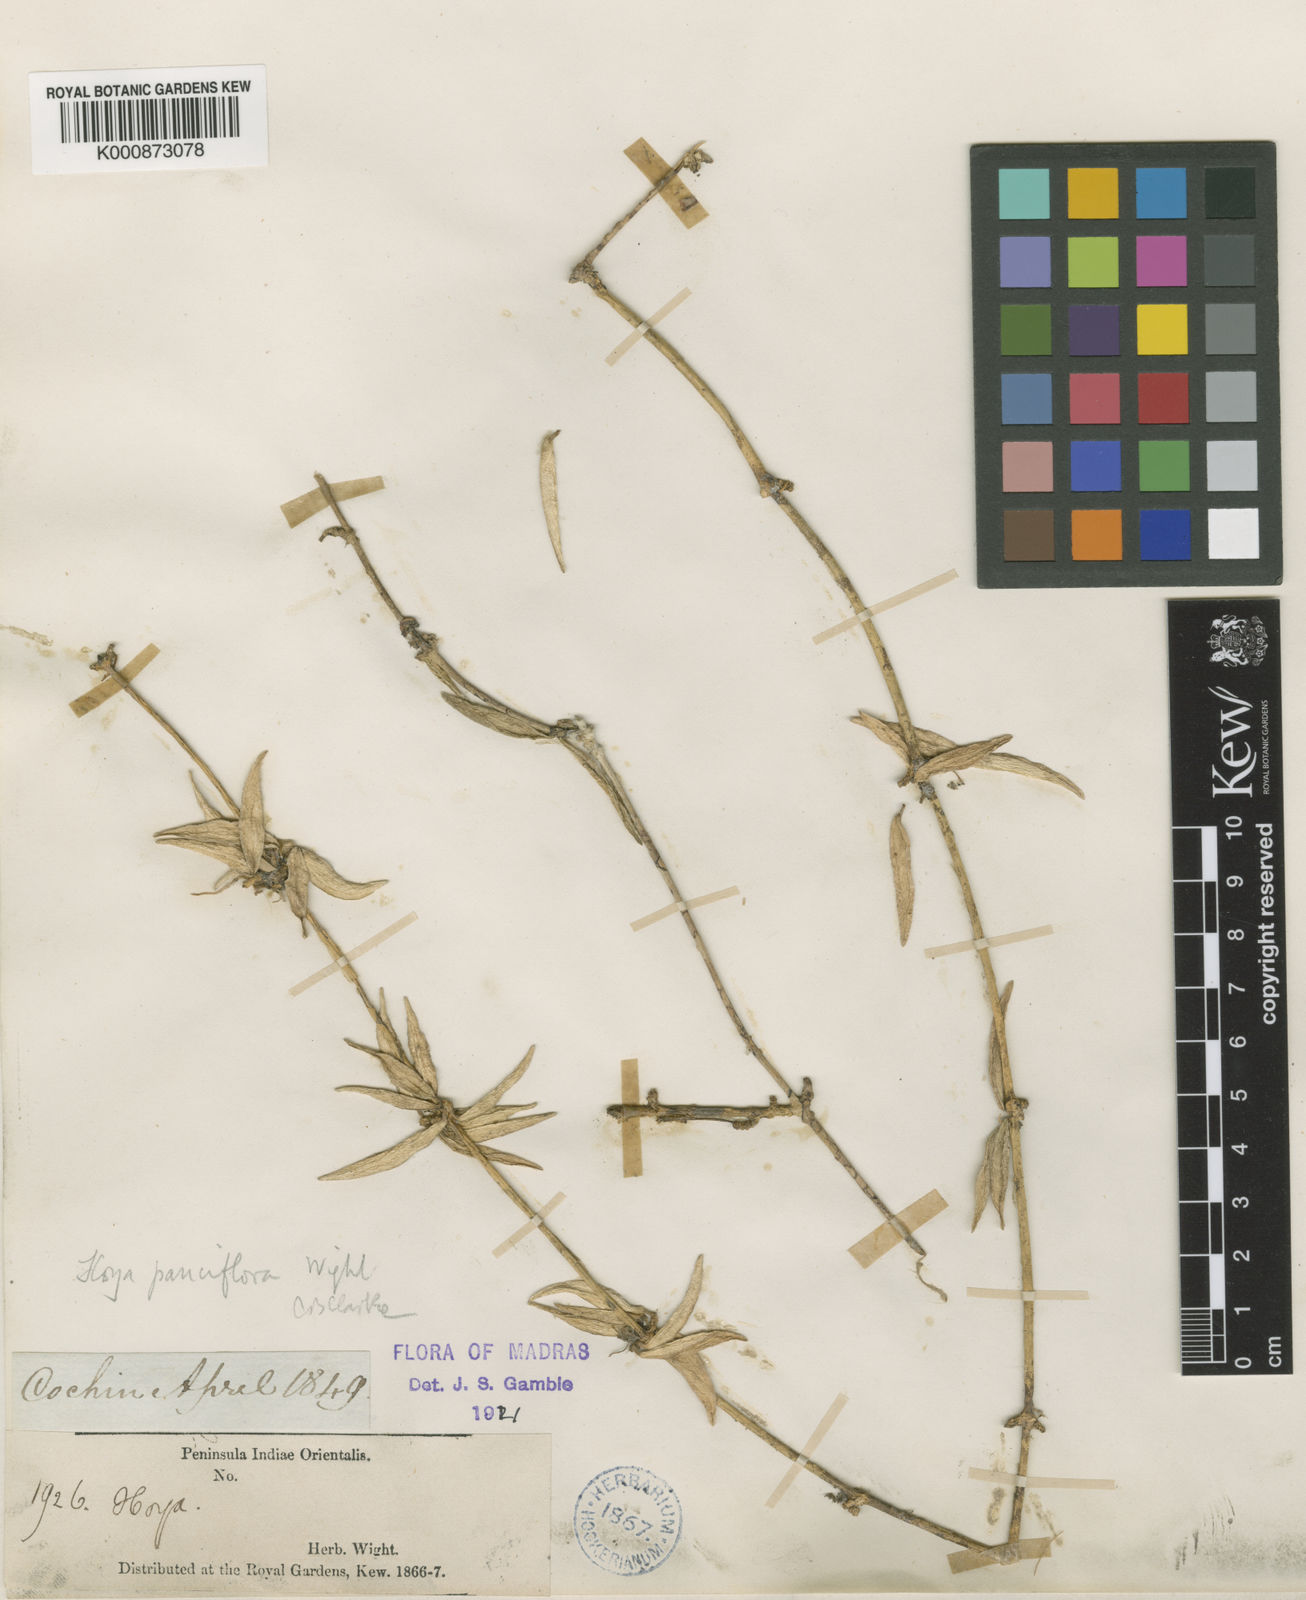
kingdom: Plantae
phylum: Tracheophyta
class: Magnoliopsida
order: Gentianales
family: Apocynaceae
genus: Hoya
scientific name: Hoya pauciflora
